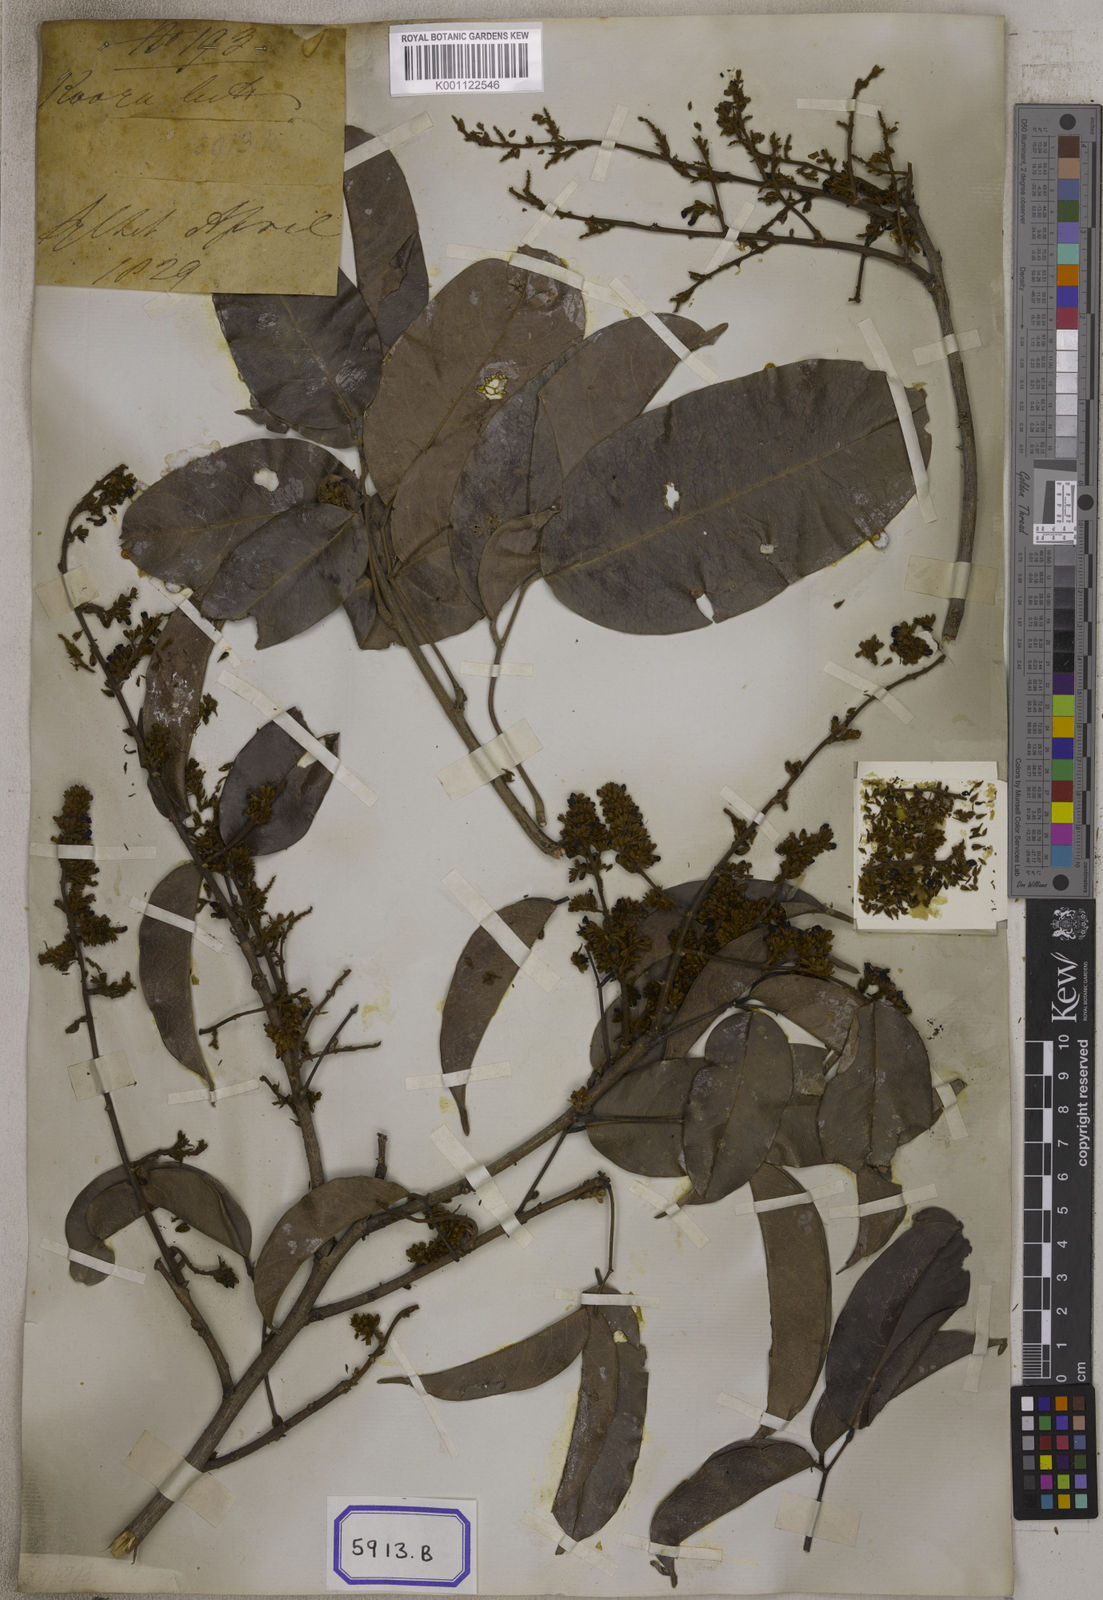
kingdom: Plantae
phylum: Tracheophyta
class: Magnoliopsida
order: Fabales
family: Fabaceae
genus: Spatholobus
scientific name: Spatholobus crassifolius
